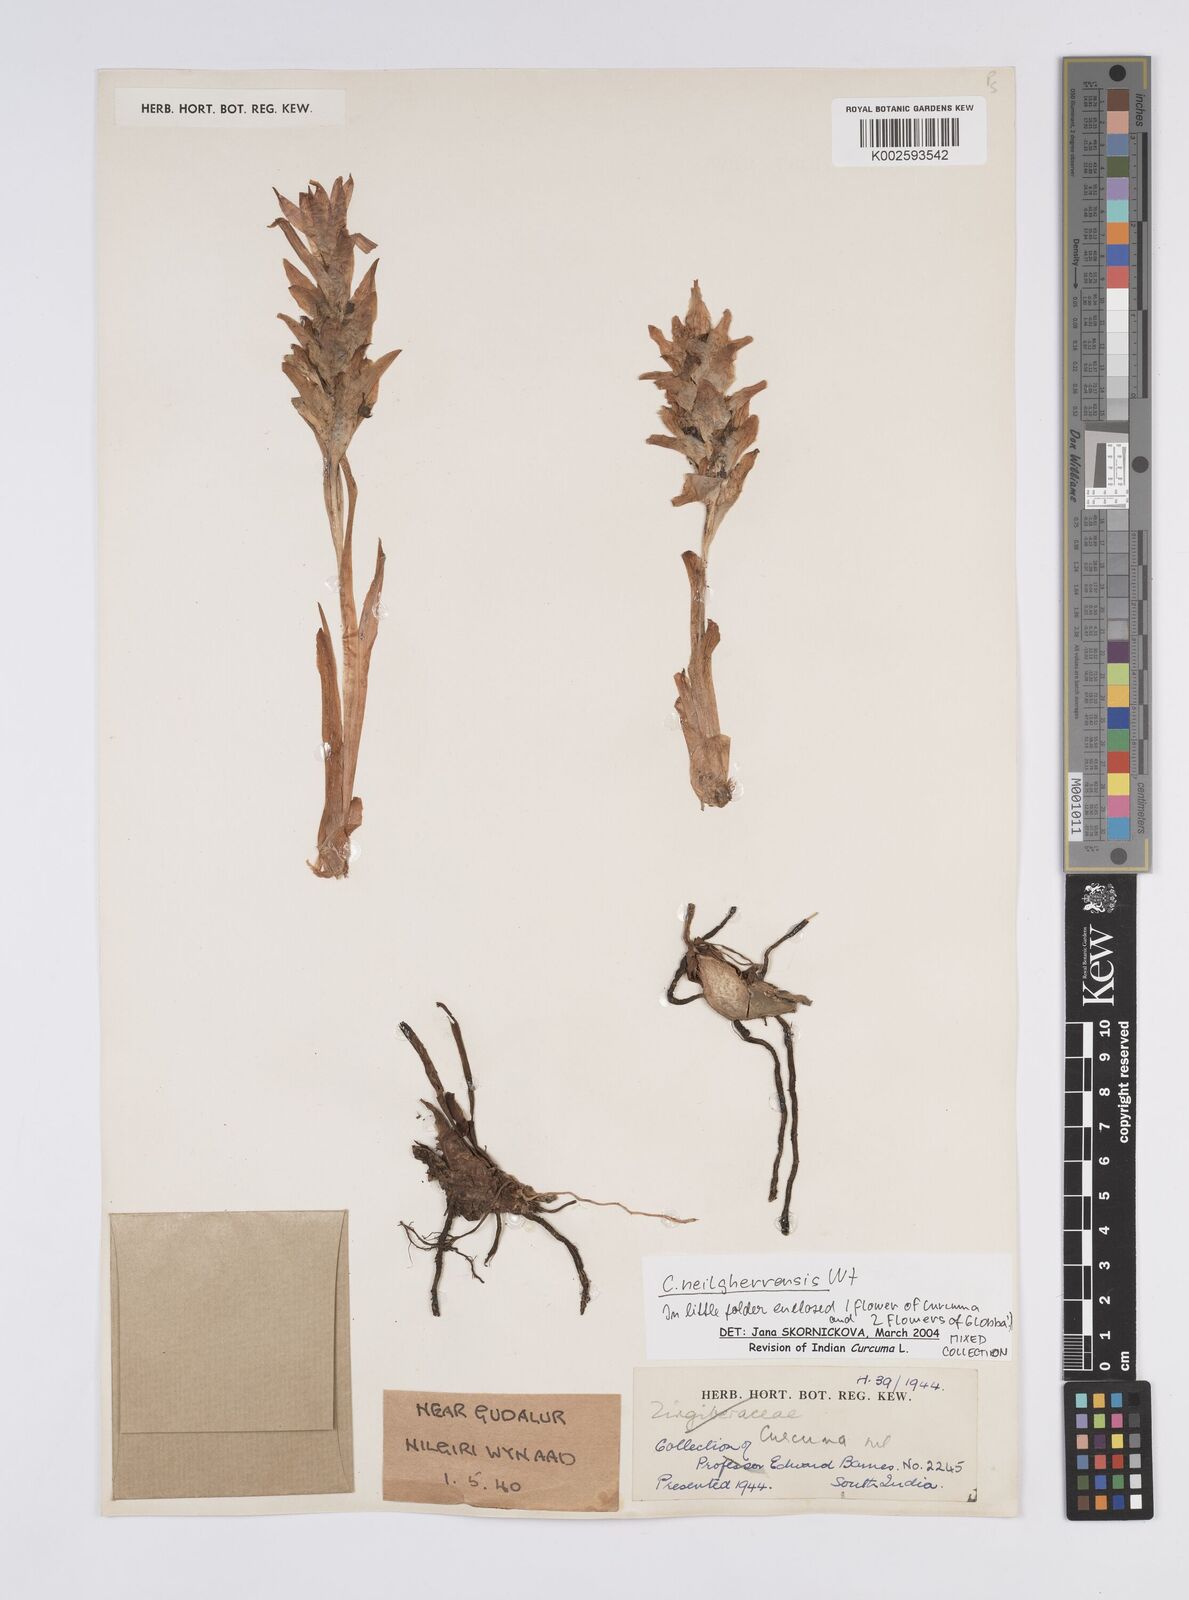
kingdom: Plantae
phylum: Tracheophyta
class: Liliopsida
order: Zingiberales
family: Zingiberaceae
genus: Curcuma
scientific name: Curcuma neilgherrensis
